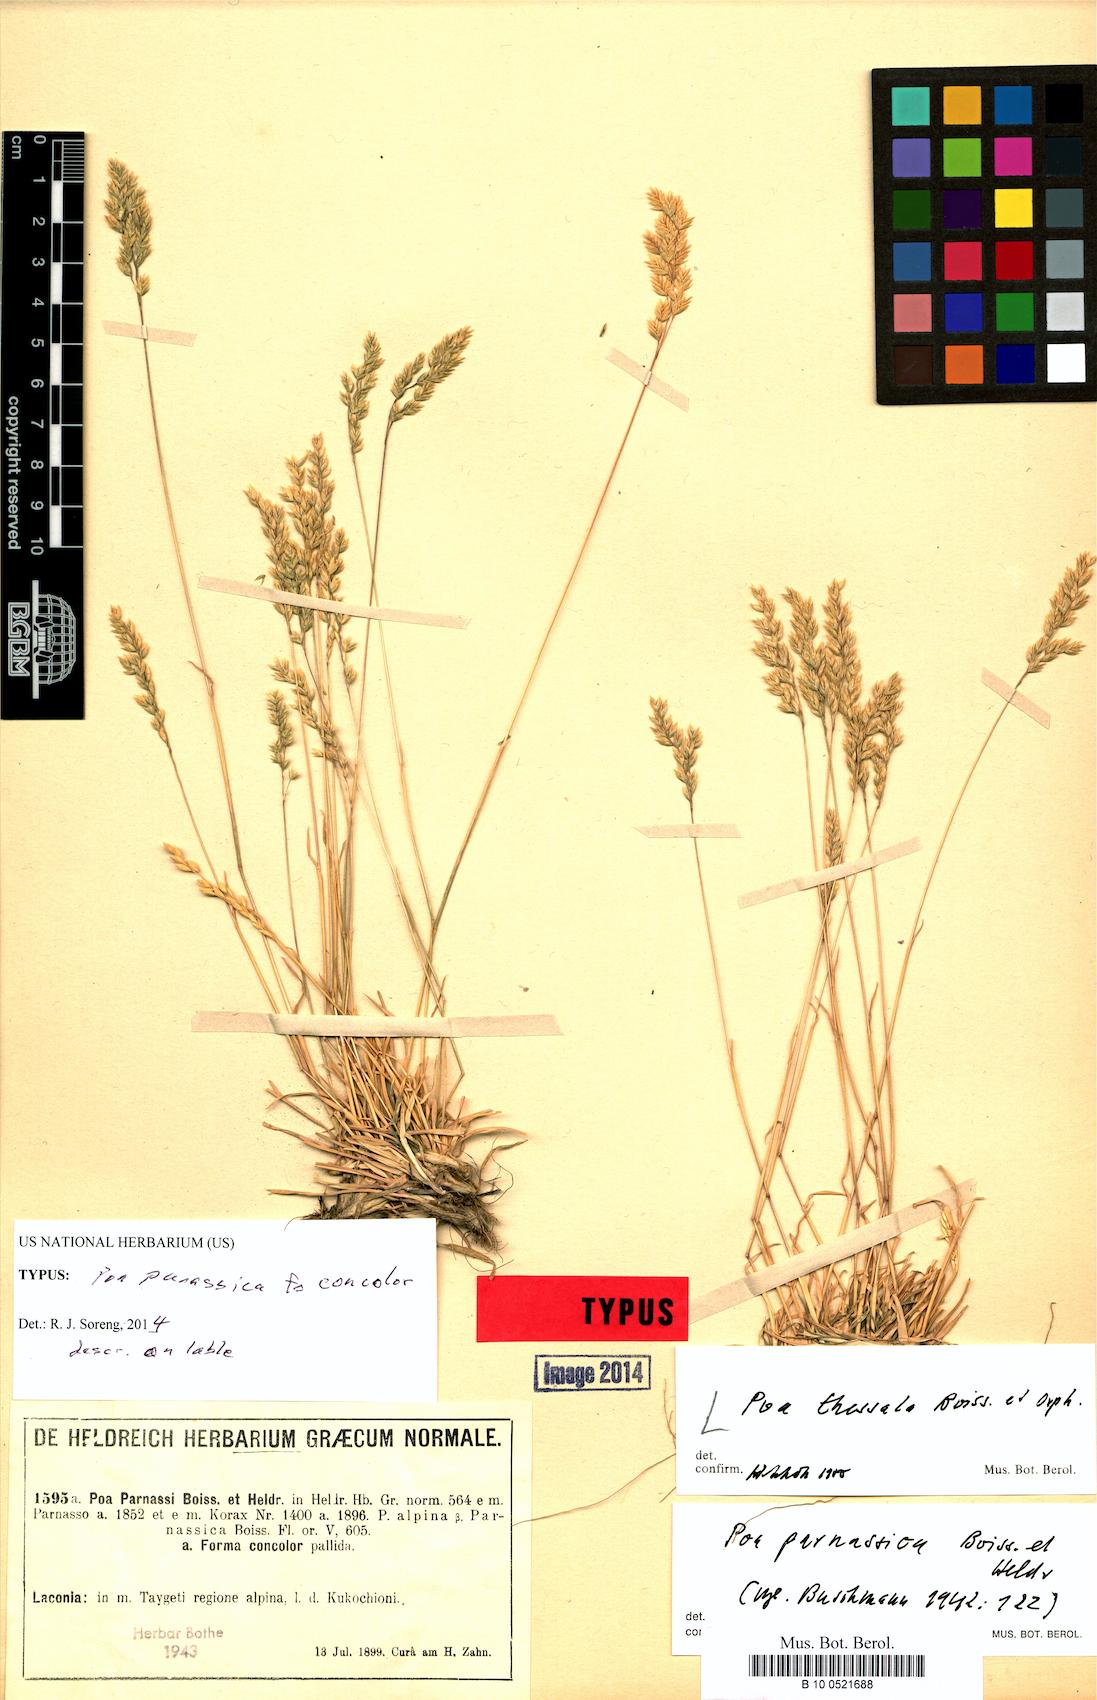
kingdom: Plantae
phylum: Tracheophyta
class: Liliopsida
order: Poales
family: Poaceae
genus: Poa
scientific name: Poa alpina
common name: Alpine bluegrass
